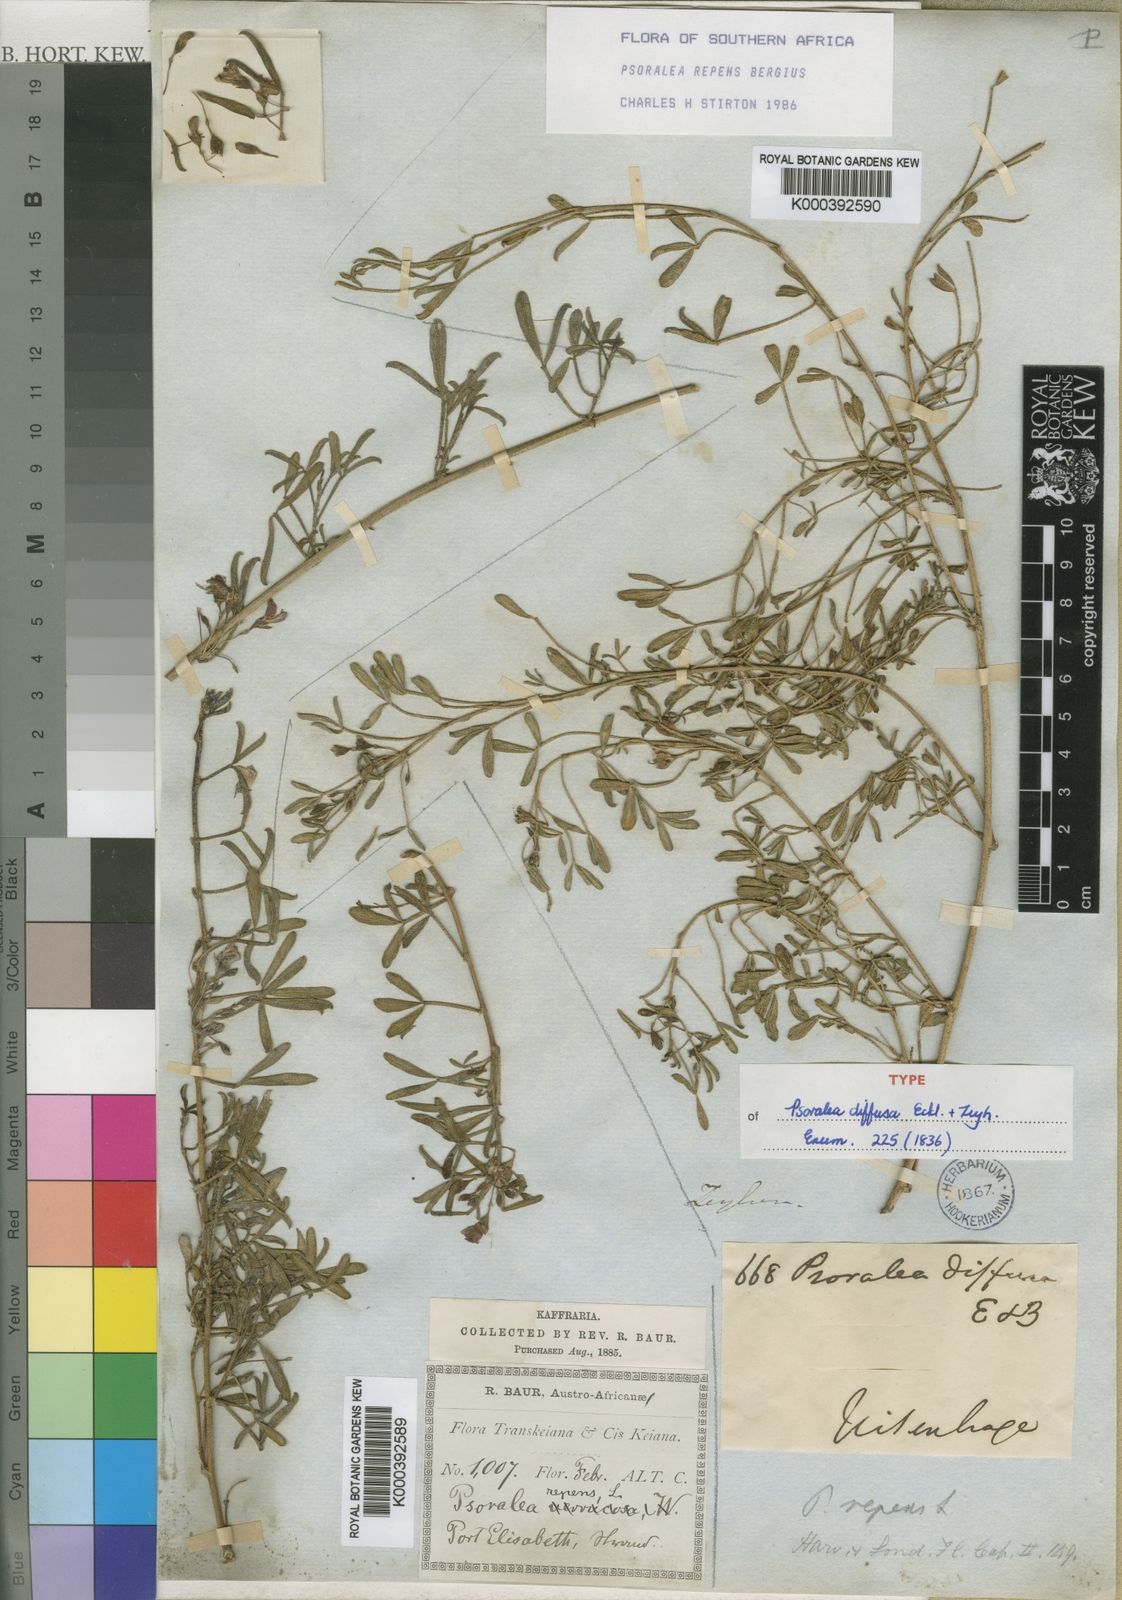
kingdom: Plantae
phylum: Tracheophyta
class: Magnoliopsida
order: Fabales
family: Fabaceae
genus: Psoralea
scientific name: Psoralea
